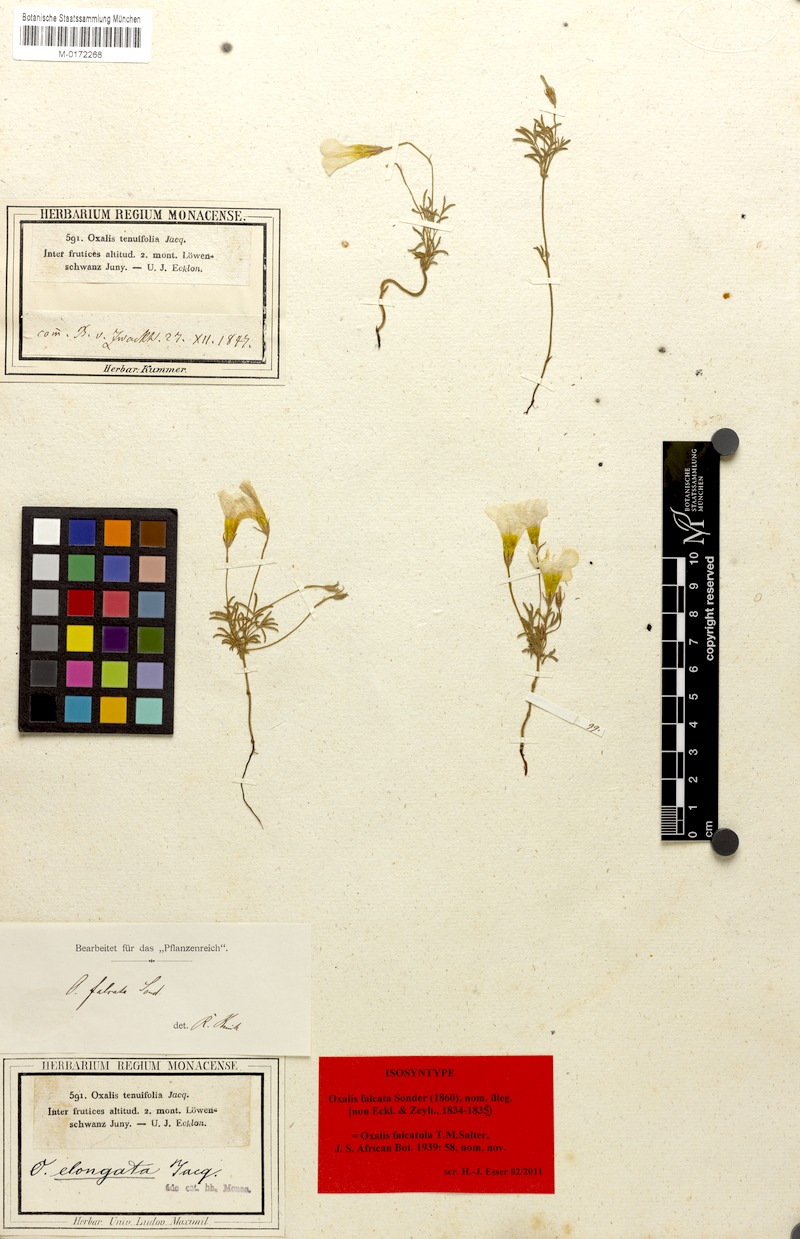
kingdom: Plantae
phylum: Tracheophyta
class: Magnoliopsida
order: Oxalidales
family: Oxalidaceae
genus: Oxalis
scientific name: Oxalis falcatula
